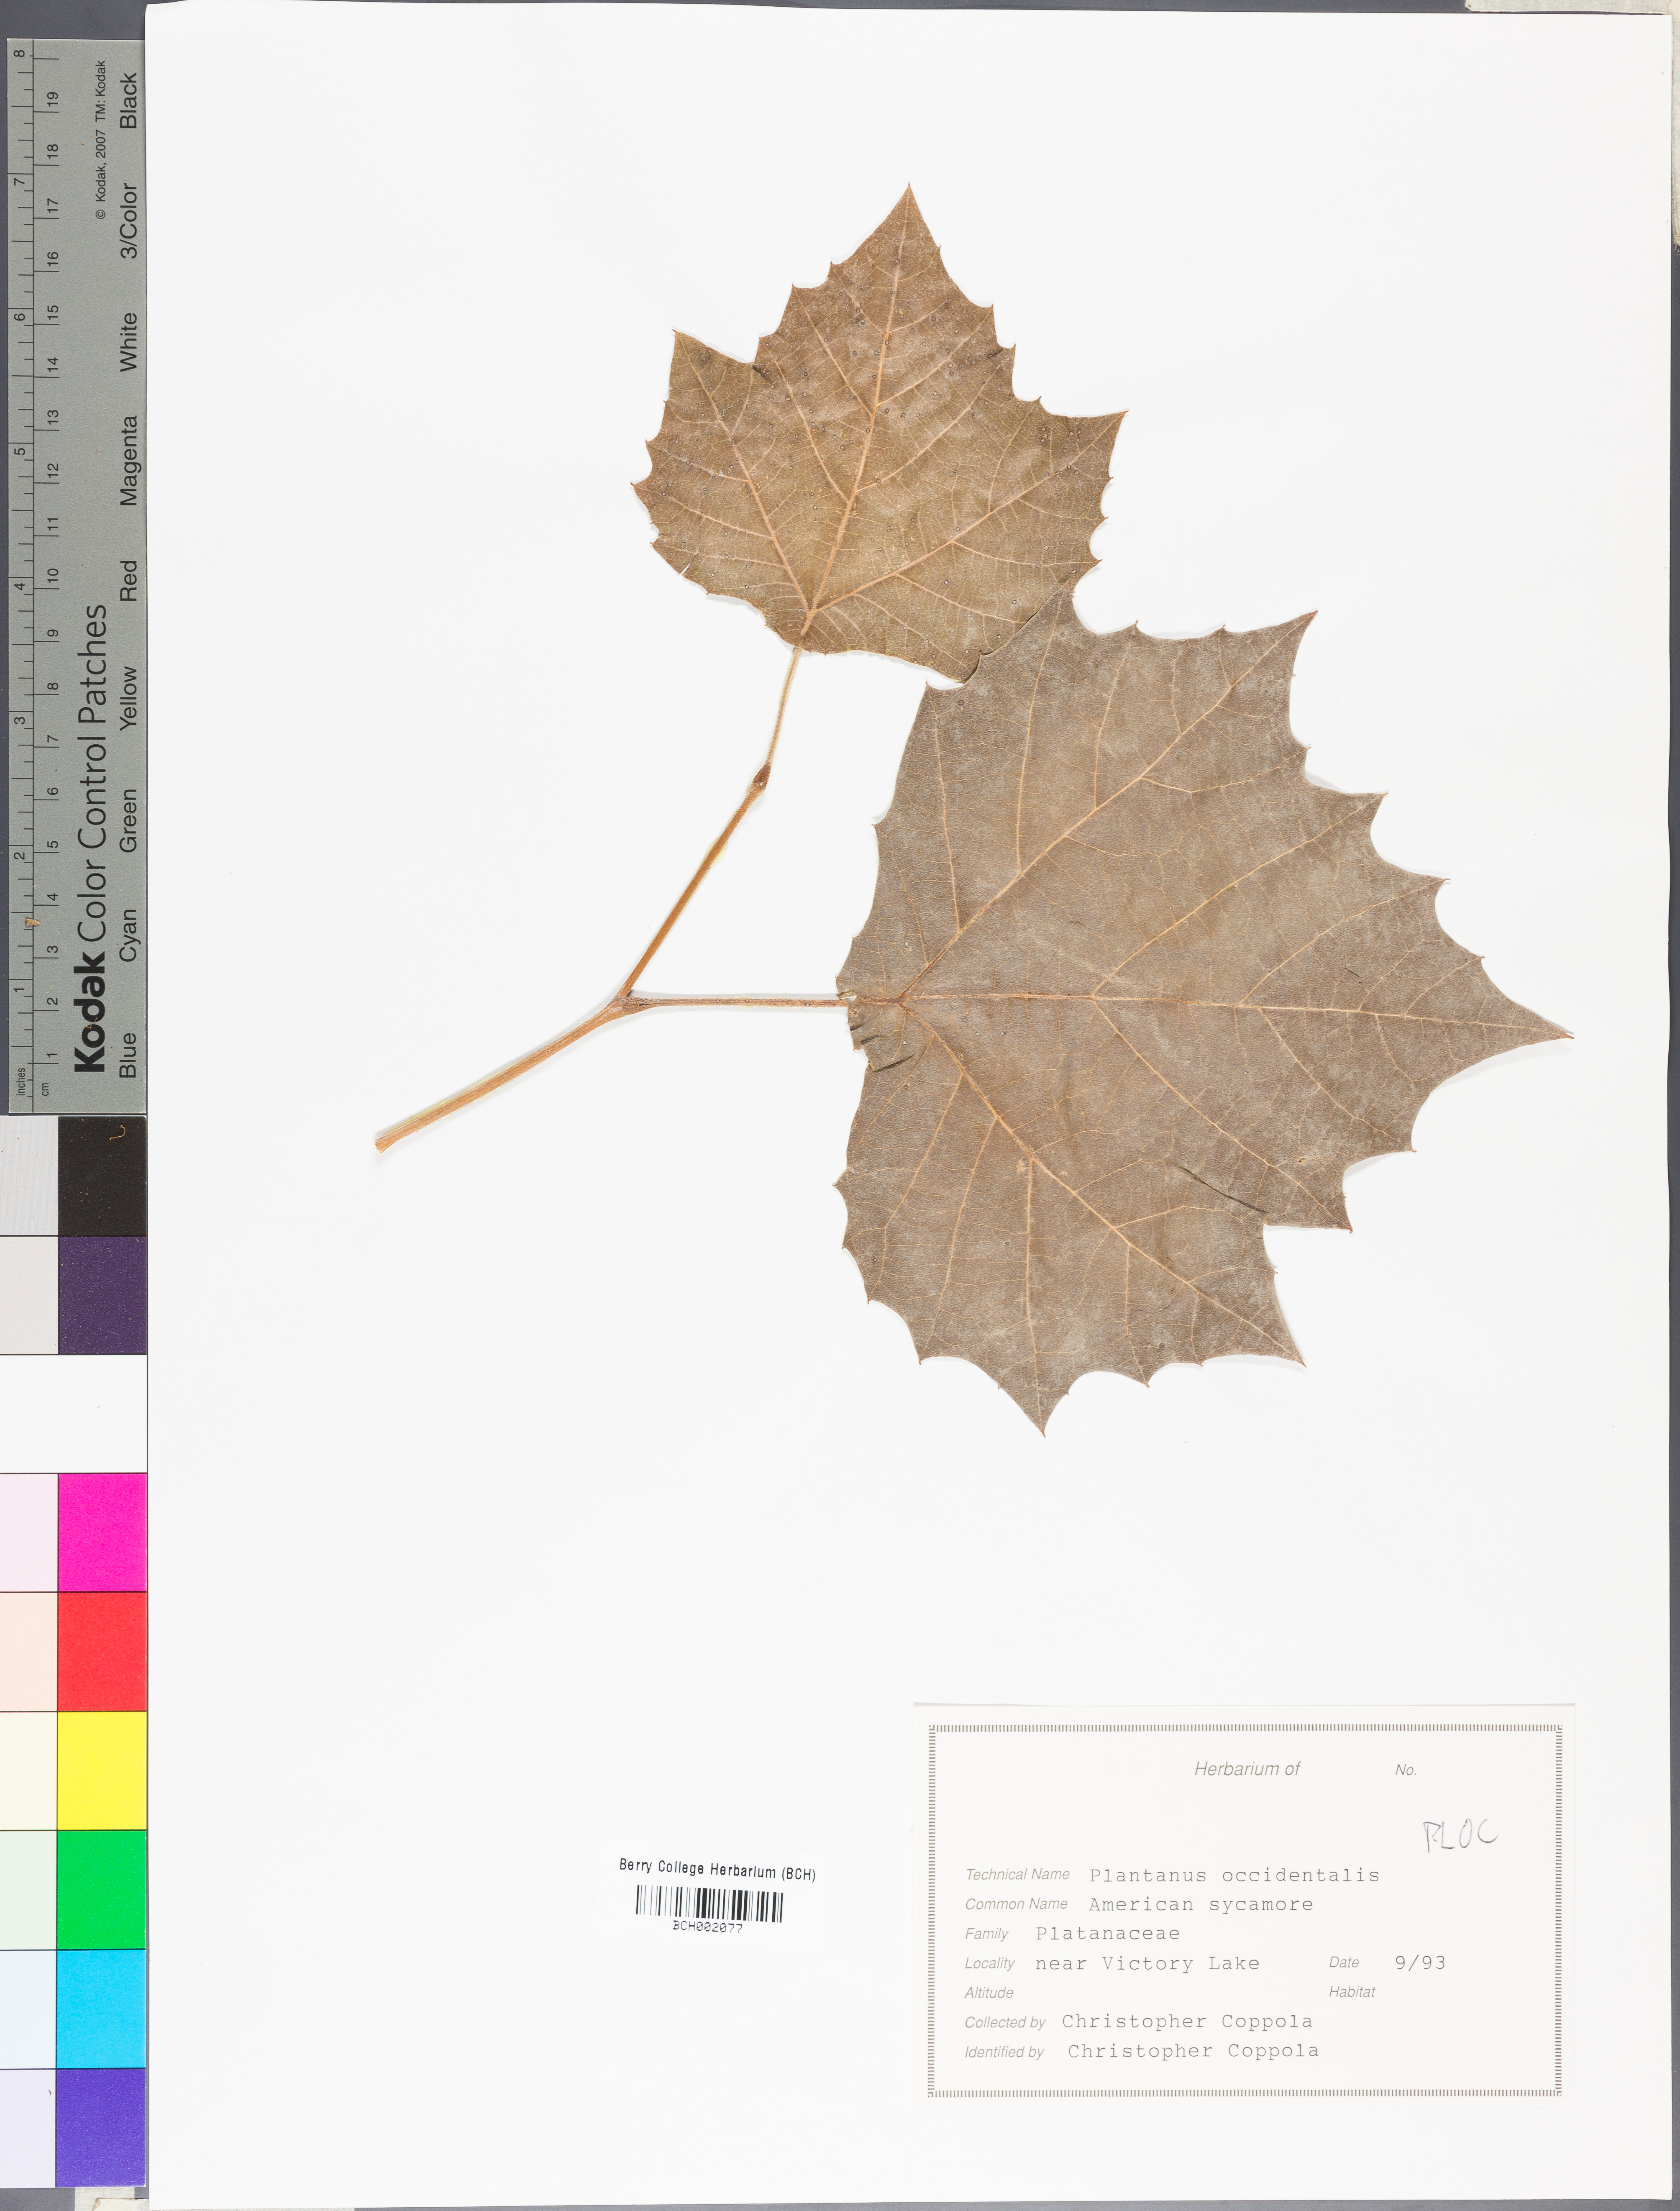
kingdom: Plantae
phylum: Tracheophyta
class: Magnoliopsida
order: Proteales
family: Platanaceae
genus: Platanus
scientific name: Platanus occidentalis
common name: American sycamore
